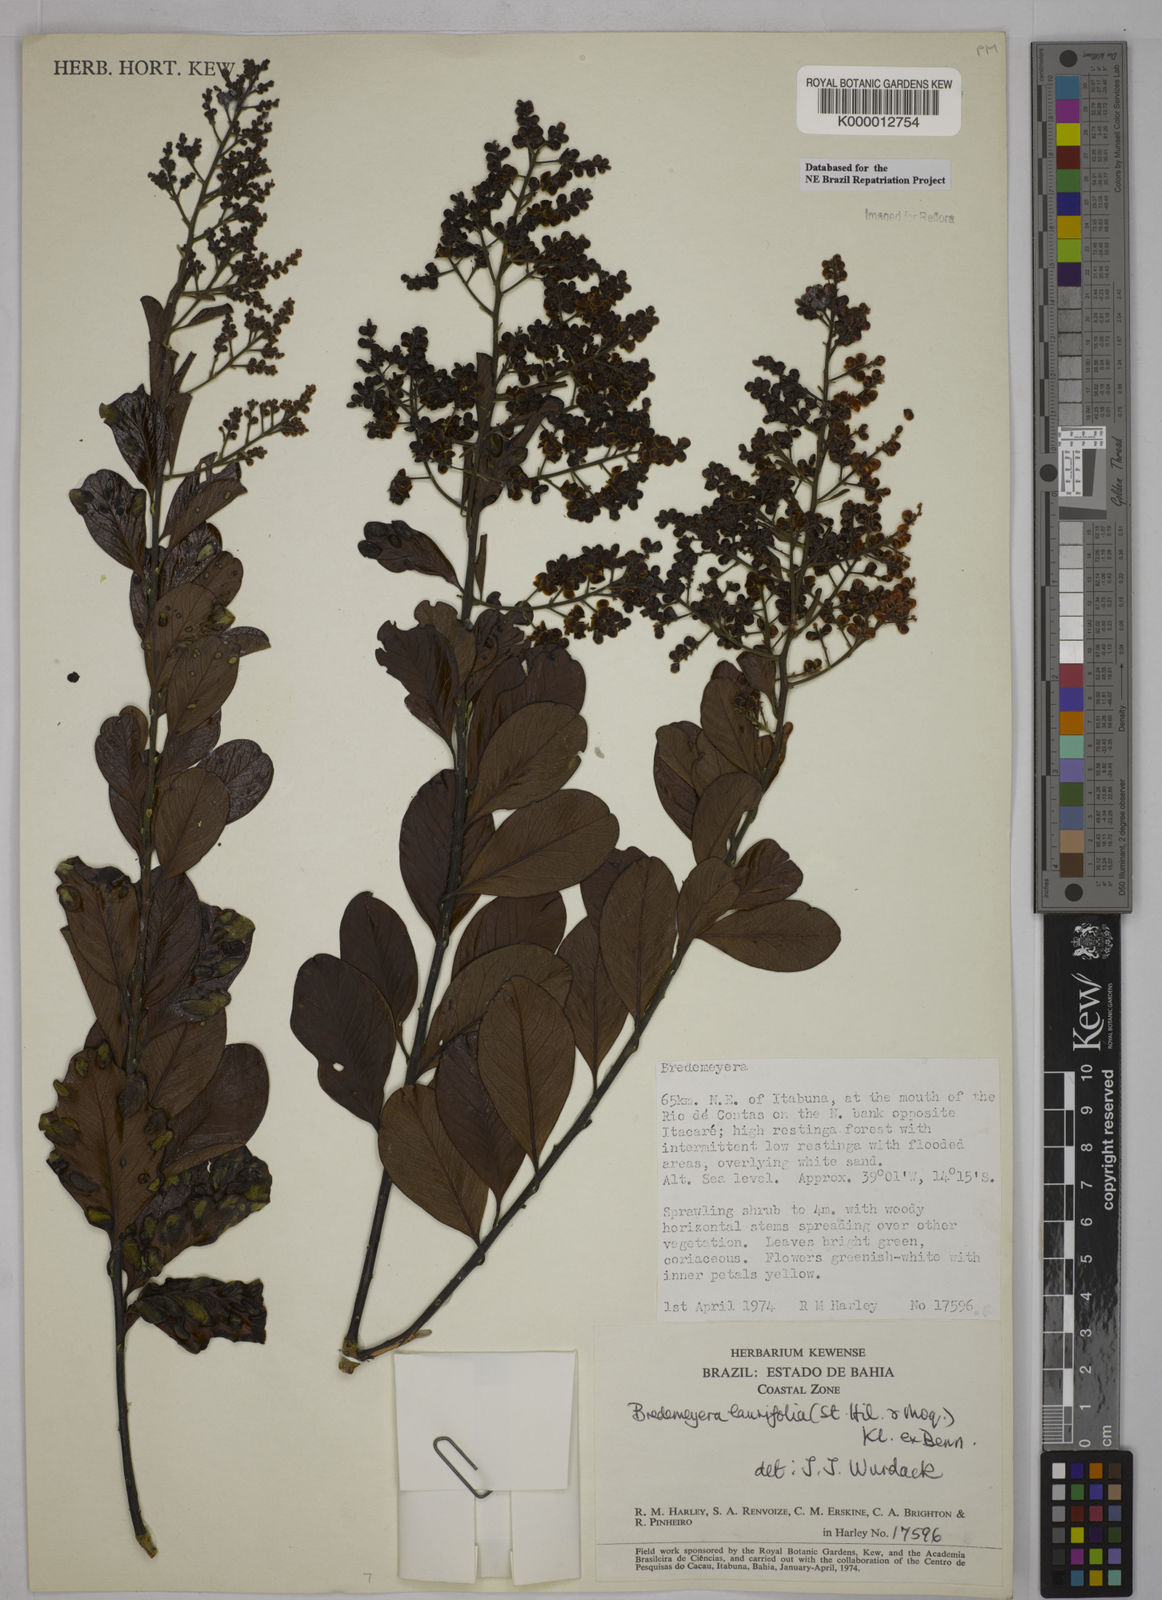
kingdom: Plantae
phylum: Tracheophyta
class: Magnoliopsida
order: Fabales
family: Polygalaceae
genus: Bredemeyera
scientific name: Bredemeyera laurifolia
